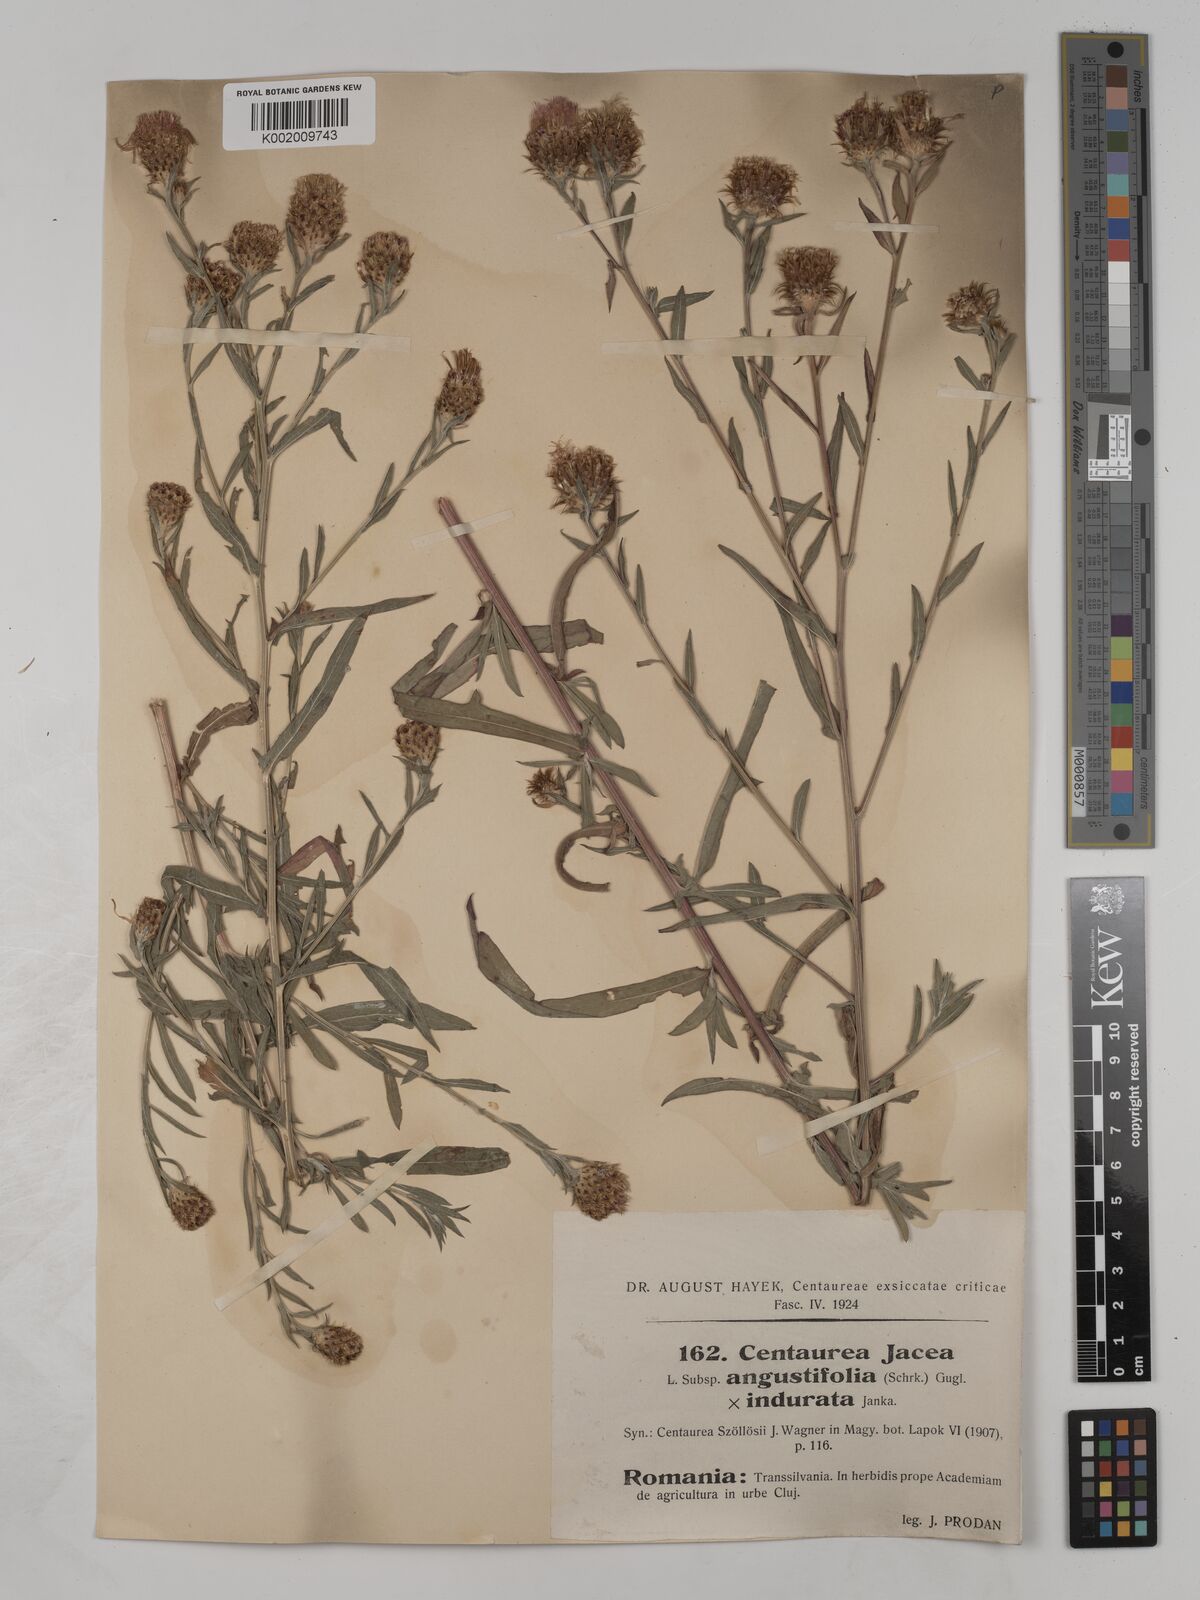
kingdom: Plantae
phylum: Tracheophyta
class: Magnoliopsida
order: Asterales
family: Asteraceae
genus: Centaurea
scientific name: Centaurea szoelloesii
